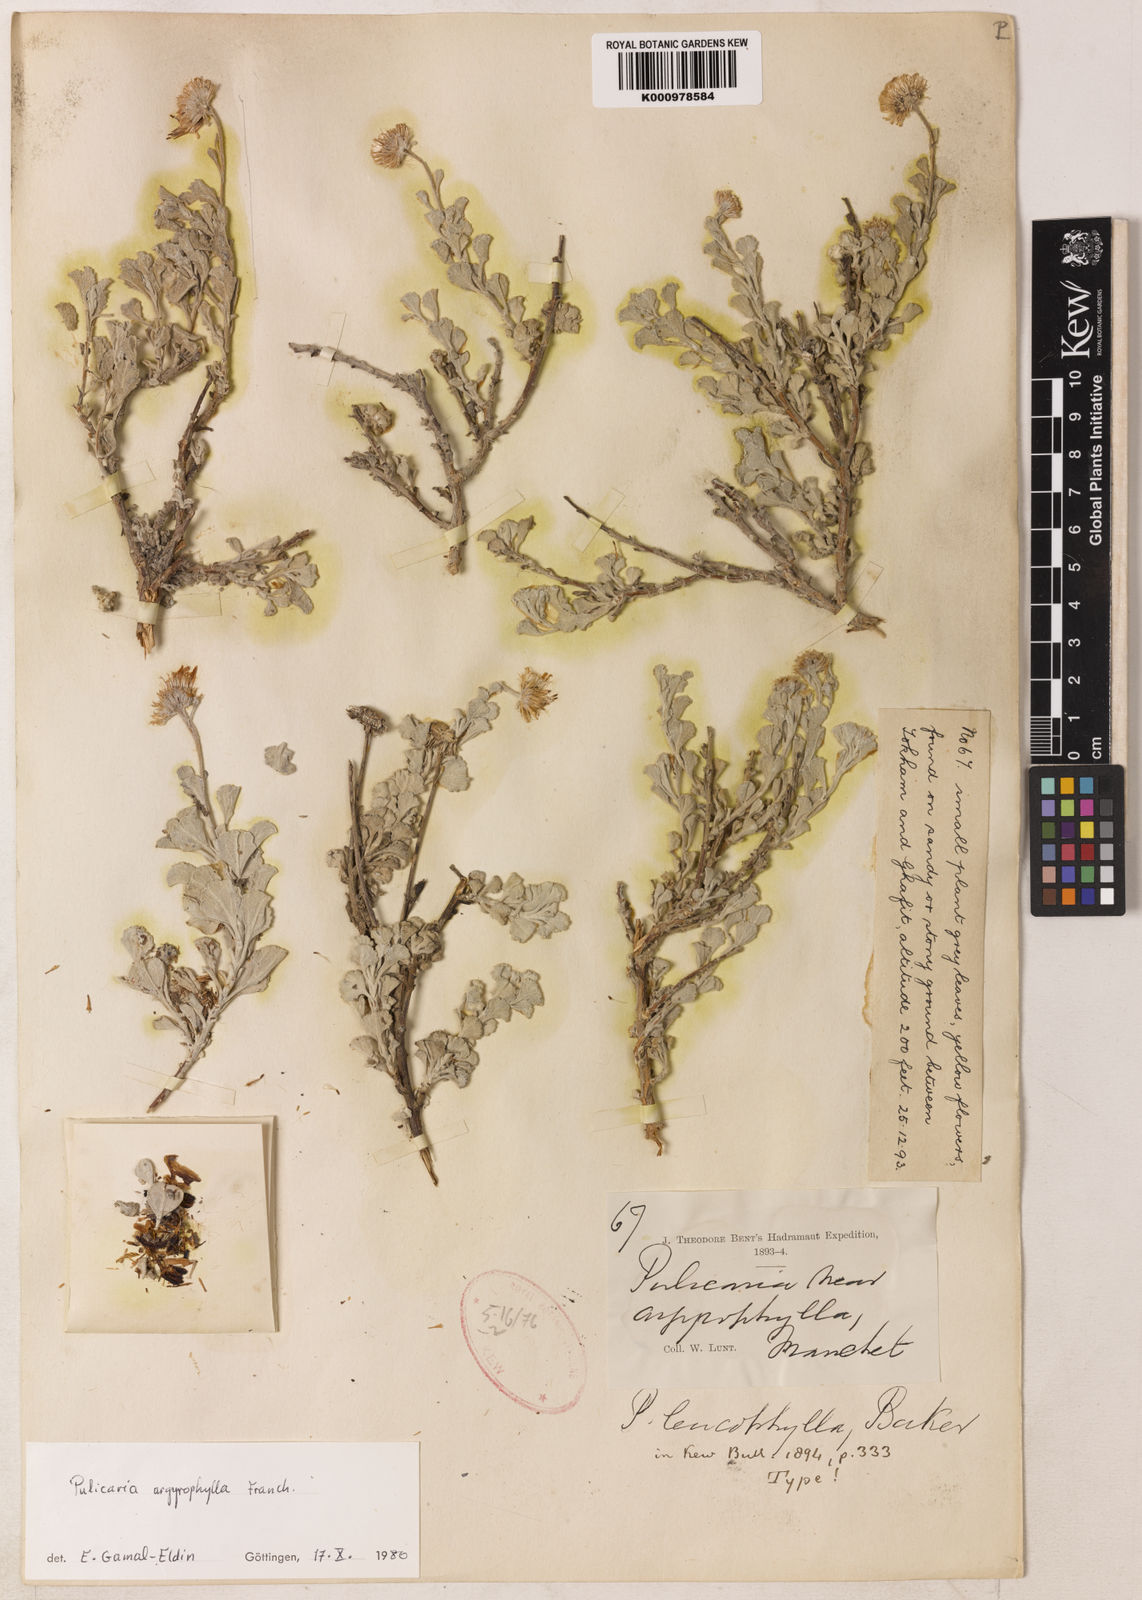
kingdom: Plantae
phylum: Tracheophyta
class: Magnoliopsida
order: Asterales
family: Asteraceae
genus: Pulicaria
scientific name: Pulicaria
